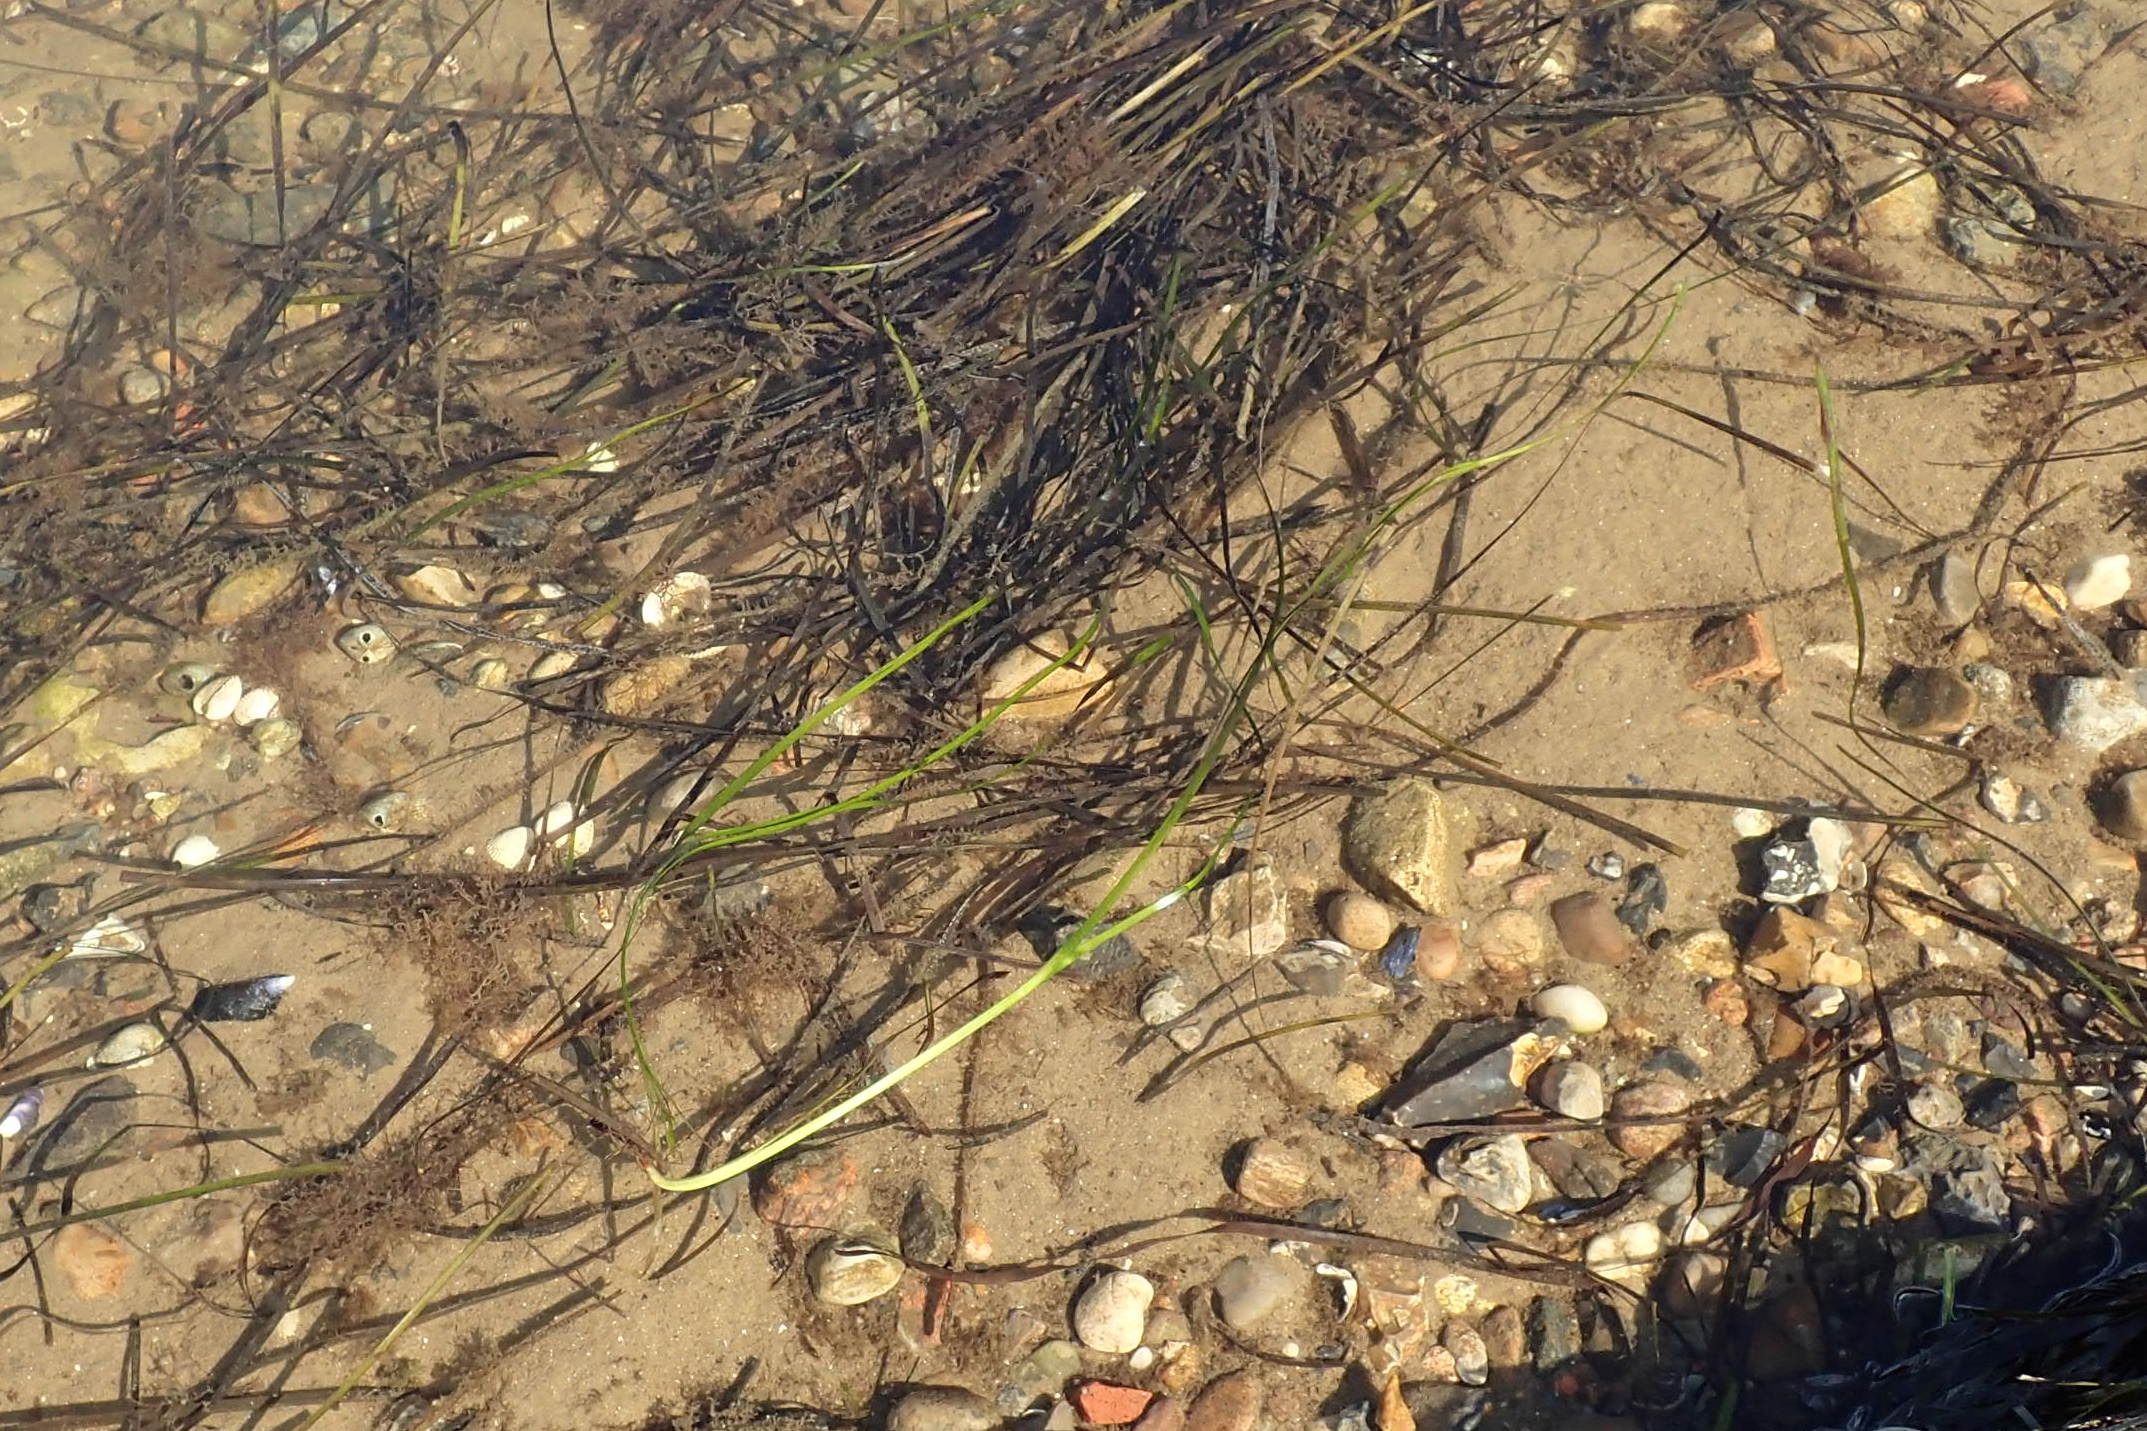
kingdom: Plantae
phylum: Tracheophyta
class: Liliopsida
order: Alismatales
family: Zosteraceae
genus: Zostera
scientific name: Zostera marina
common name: Almindelig bændeltang
